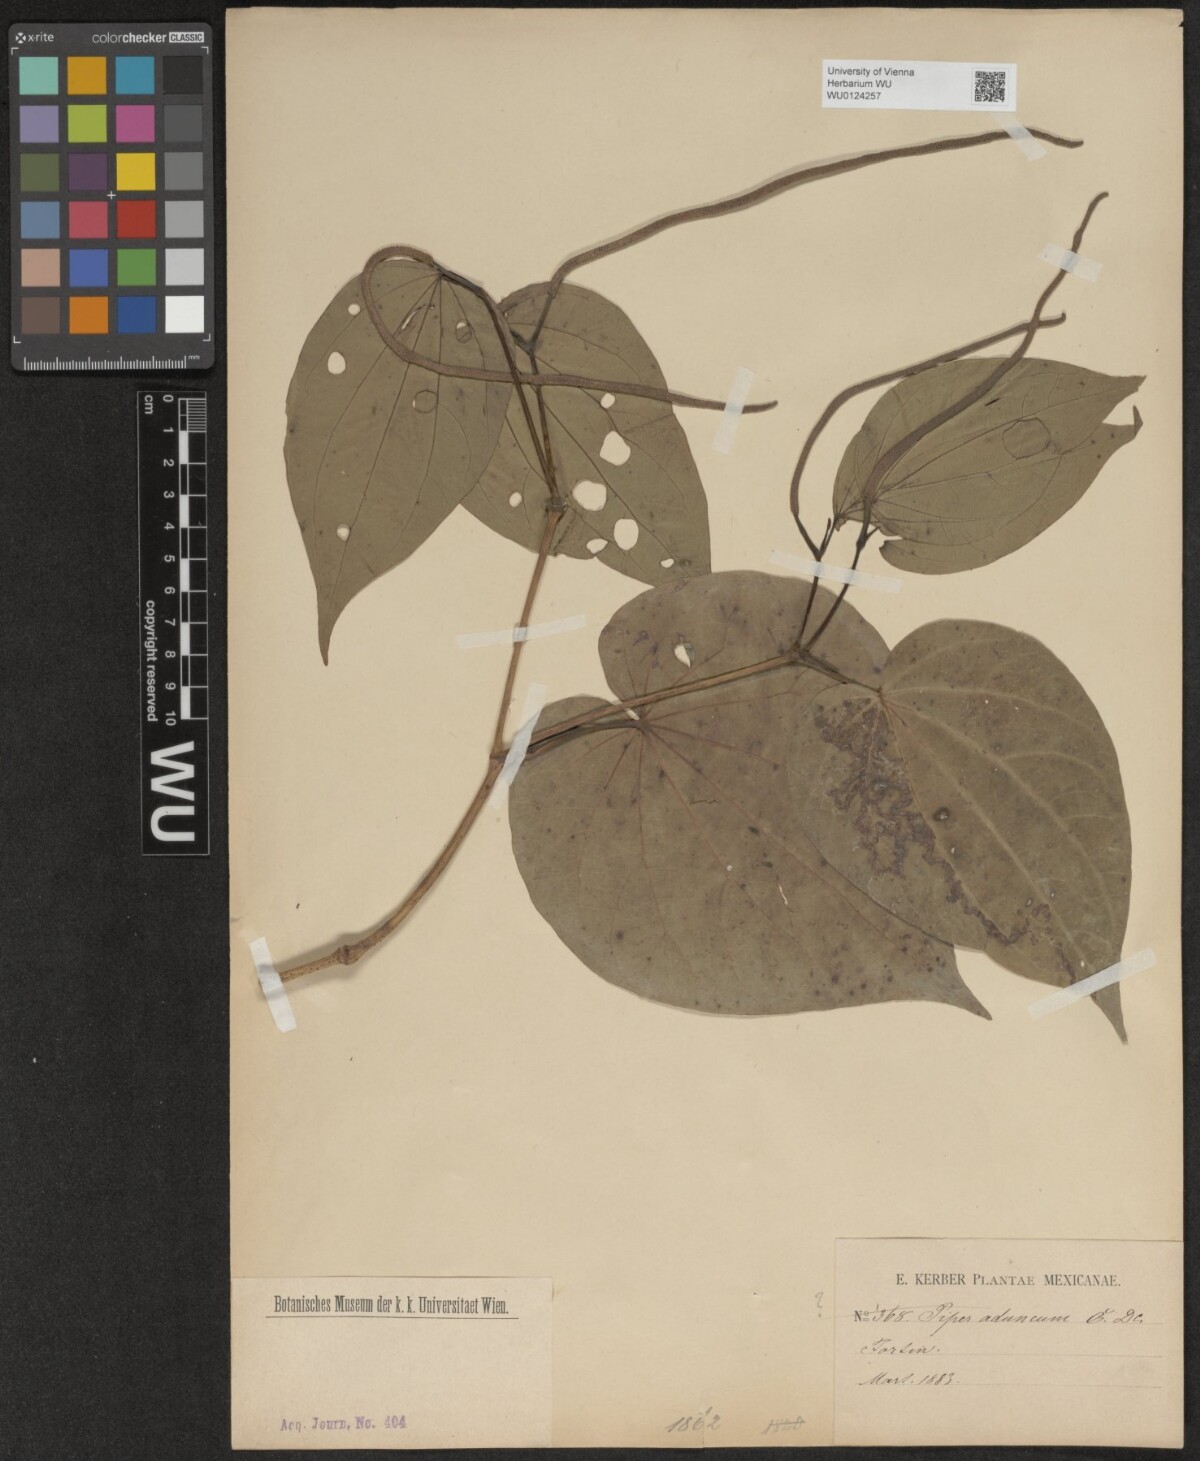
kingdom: Plantae
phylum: Tracheophyta
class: Magnoliopsida
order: Piperales
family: Piperaceae
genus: Piper
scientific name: Piper
